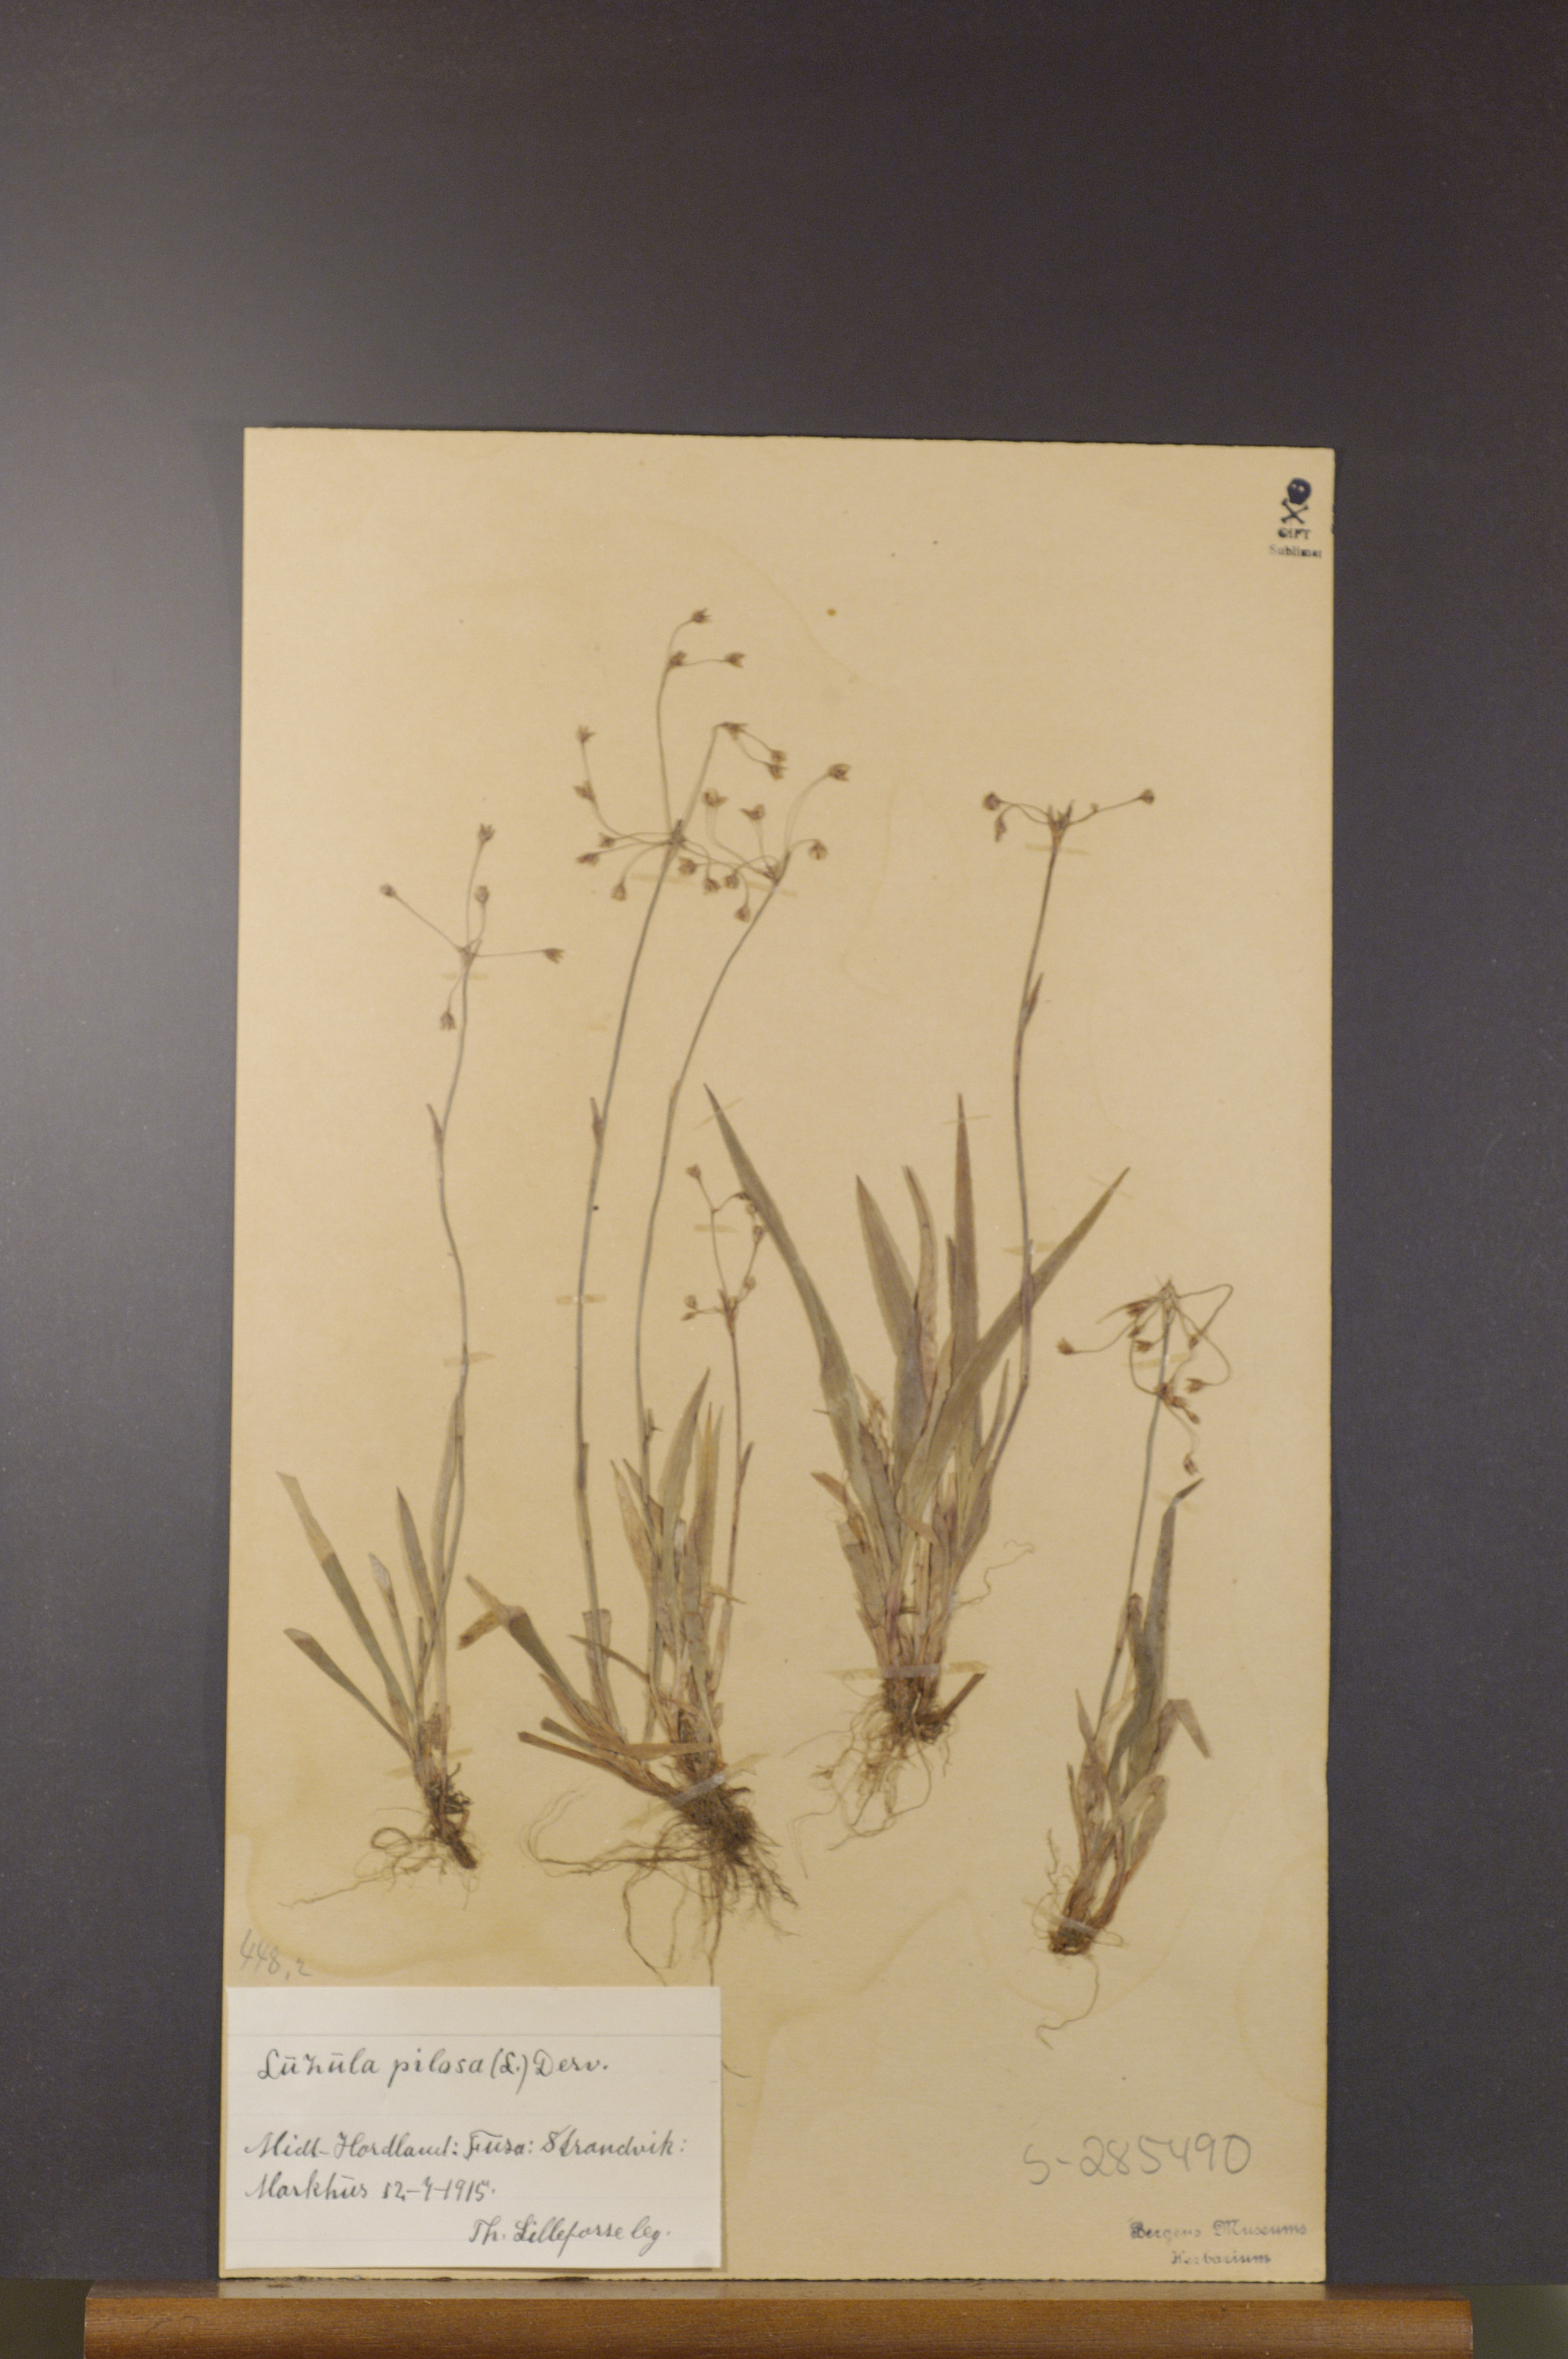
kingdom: Plantae
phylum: Tracheophyta
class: Liliopsida
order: Poales
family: Juncaceae
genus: Luzula
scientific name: Luzula pilosa
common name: Hairy wood-rush
